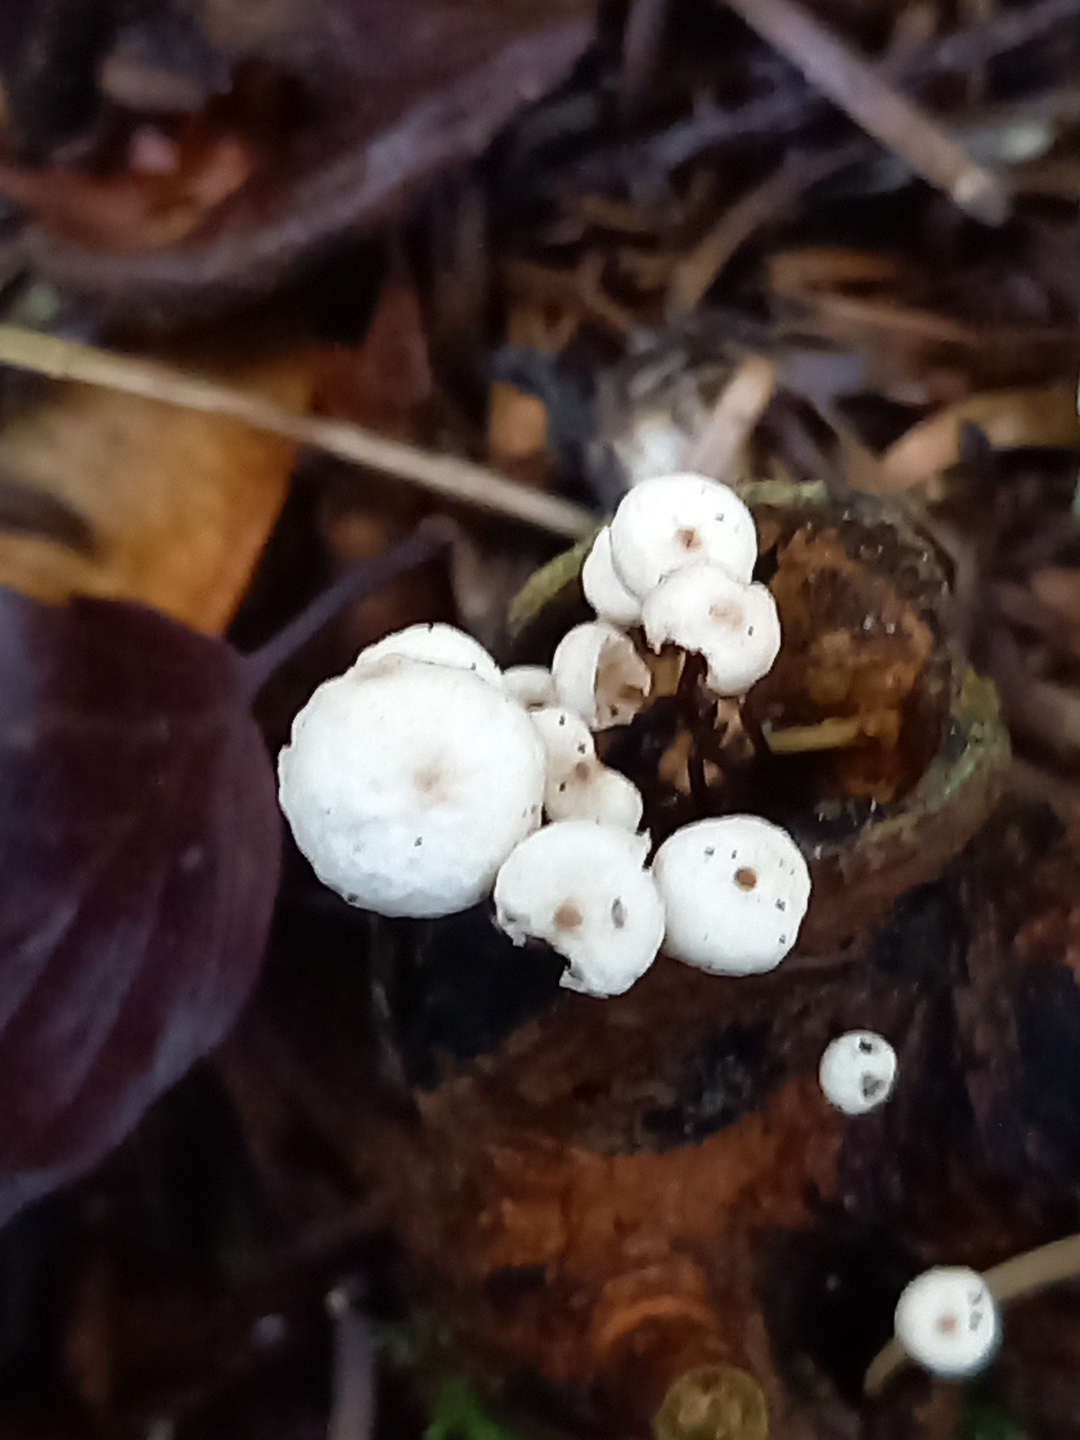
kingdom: Fungi
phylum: Basidiomycota
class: Agaricomycetes
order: Agaricales
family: Marasmiaceae
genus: Marasmius
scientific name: Marasmius rotula
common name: hjul-bruskhat
